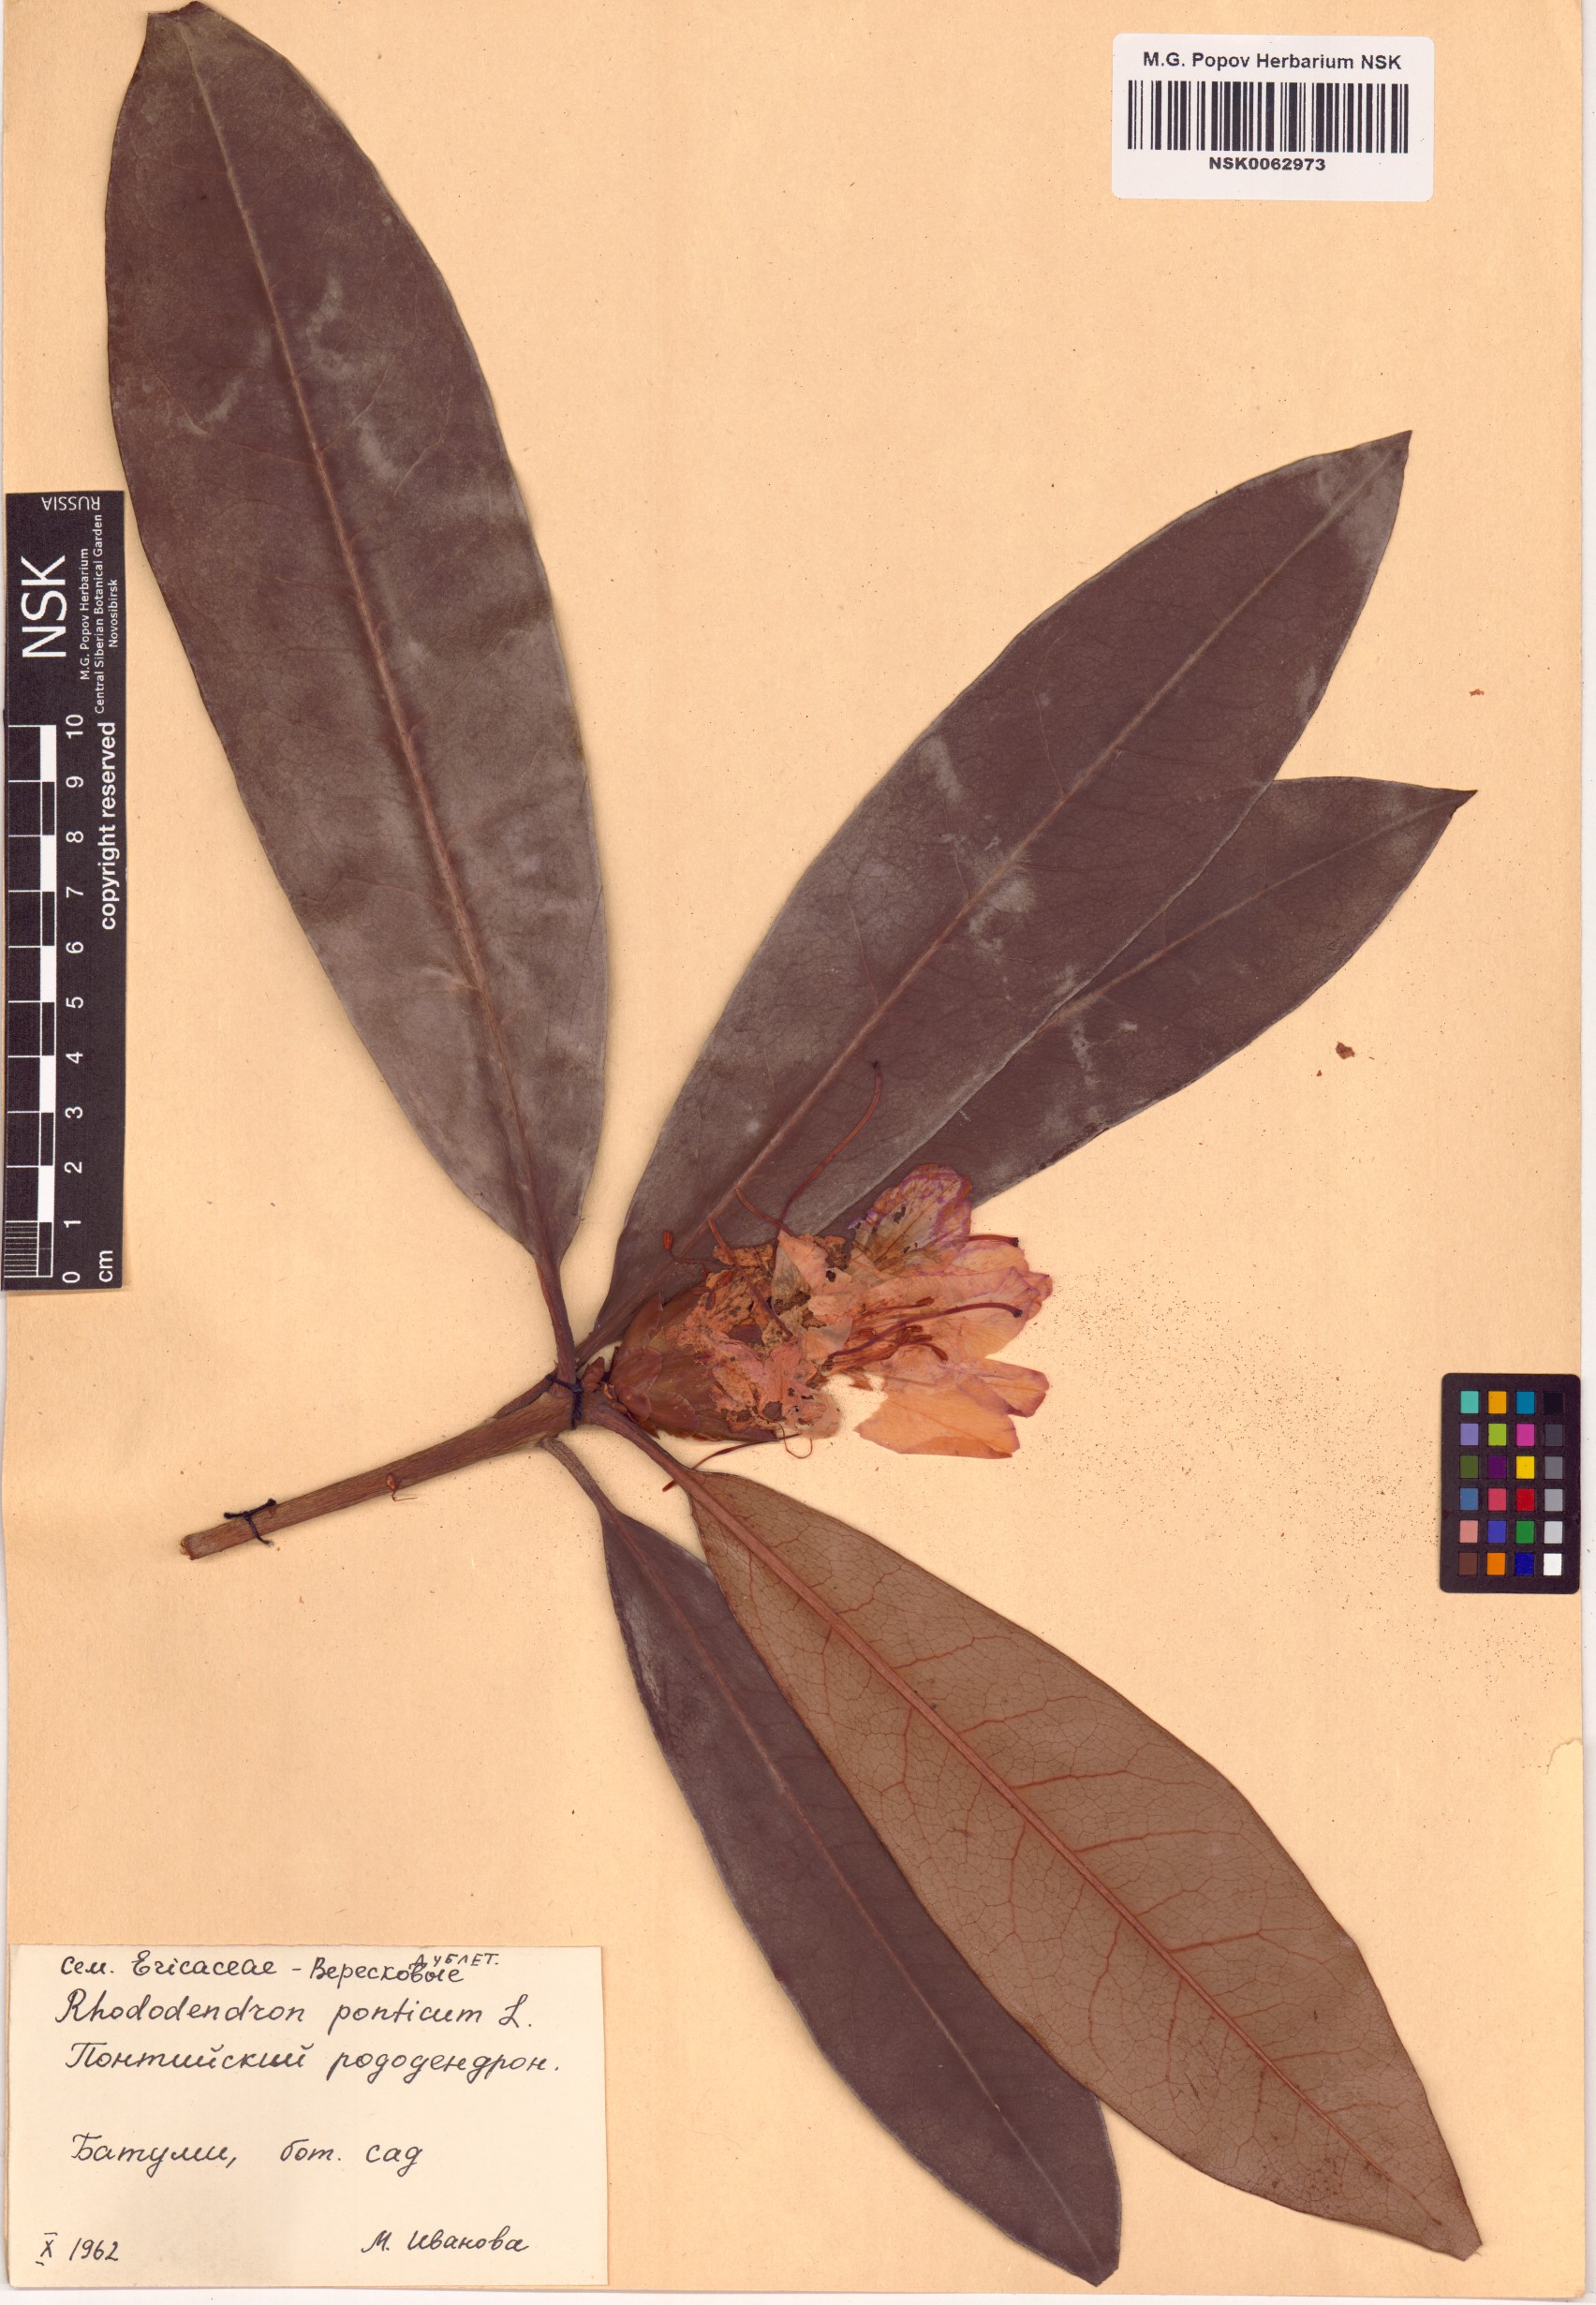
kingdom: Plantae
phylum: Tracheophyta
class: Magnoliopsida
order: Ericales
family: Ericaceae
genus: Rhododendron
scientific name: Rhododendron ponticum
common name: Rhododendron
